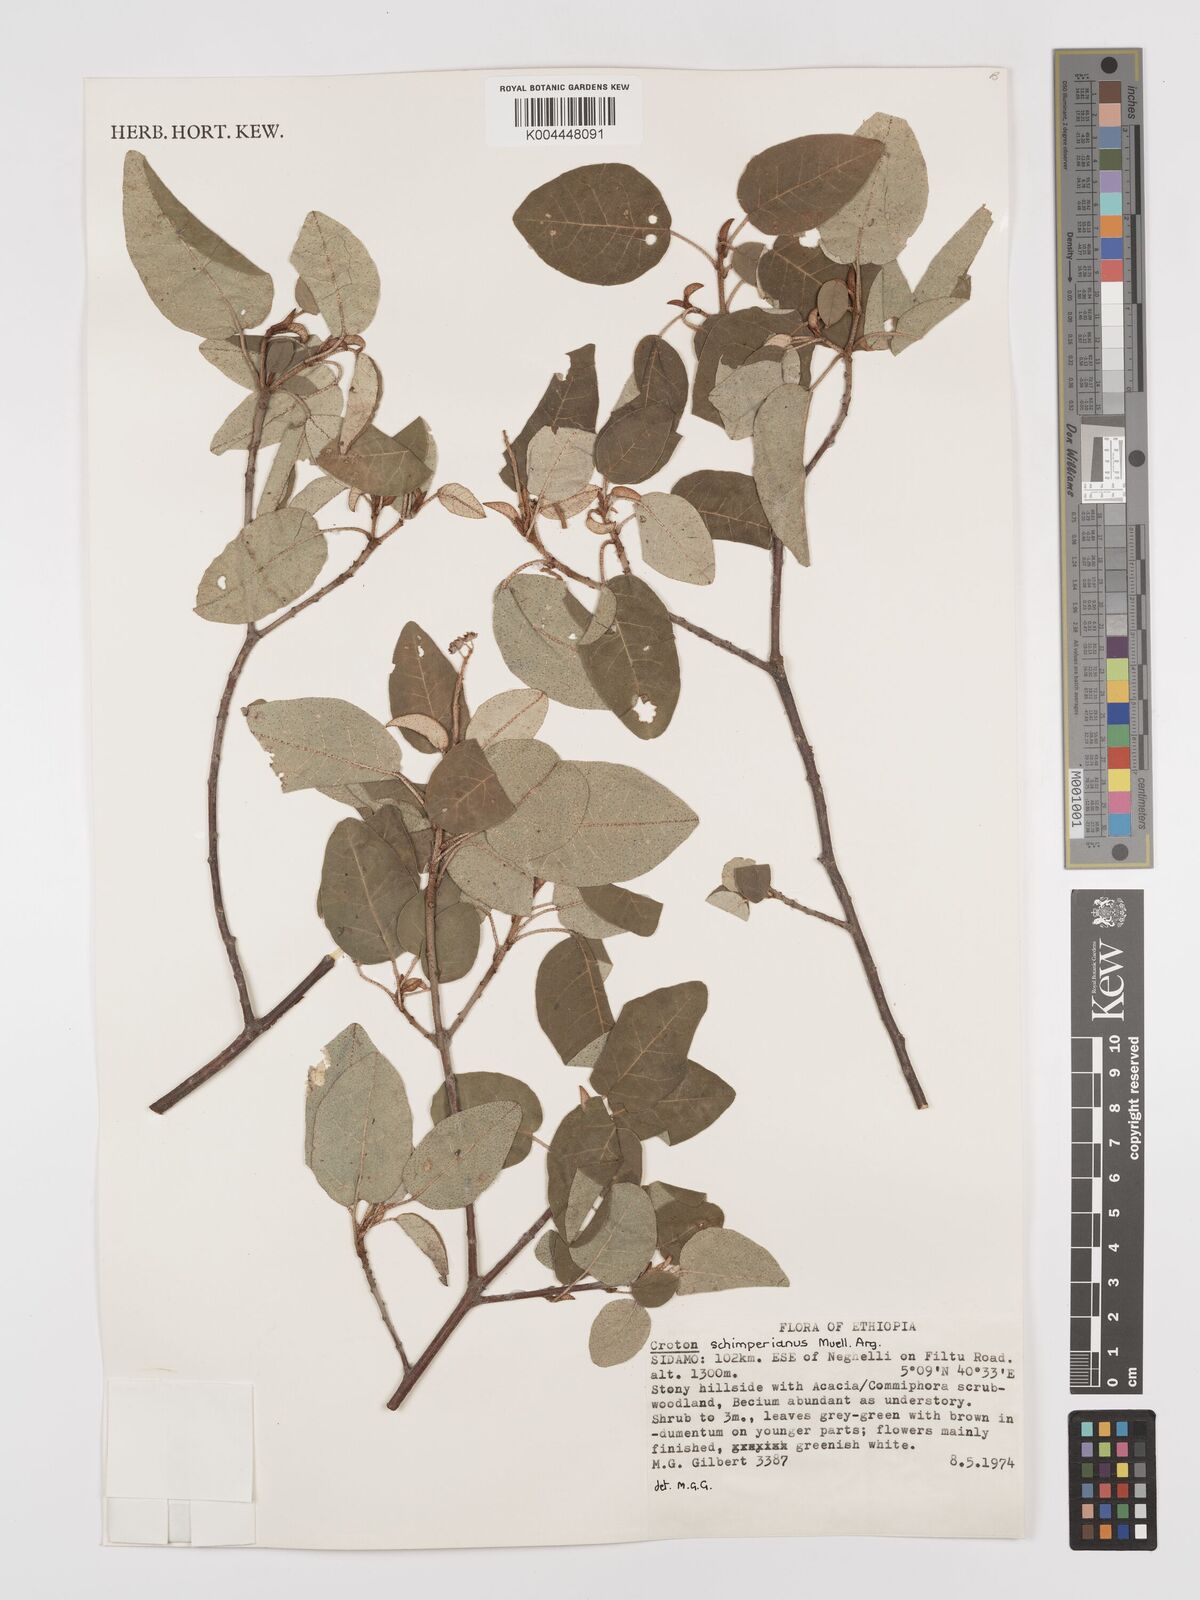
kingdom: Plantae
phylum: Tracheophyta
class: Magnoliopsida
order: Malpighiales
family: Euphorbiaceae
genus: Croton
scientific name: Croton schimperianus
